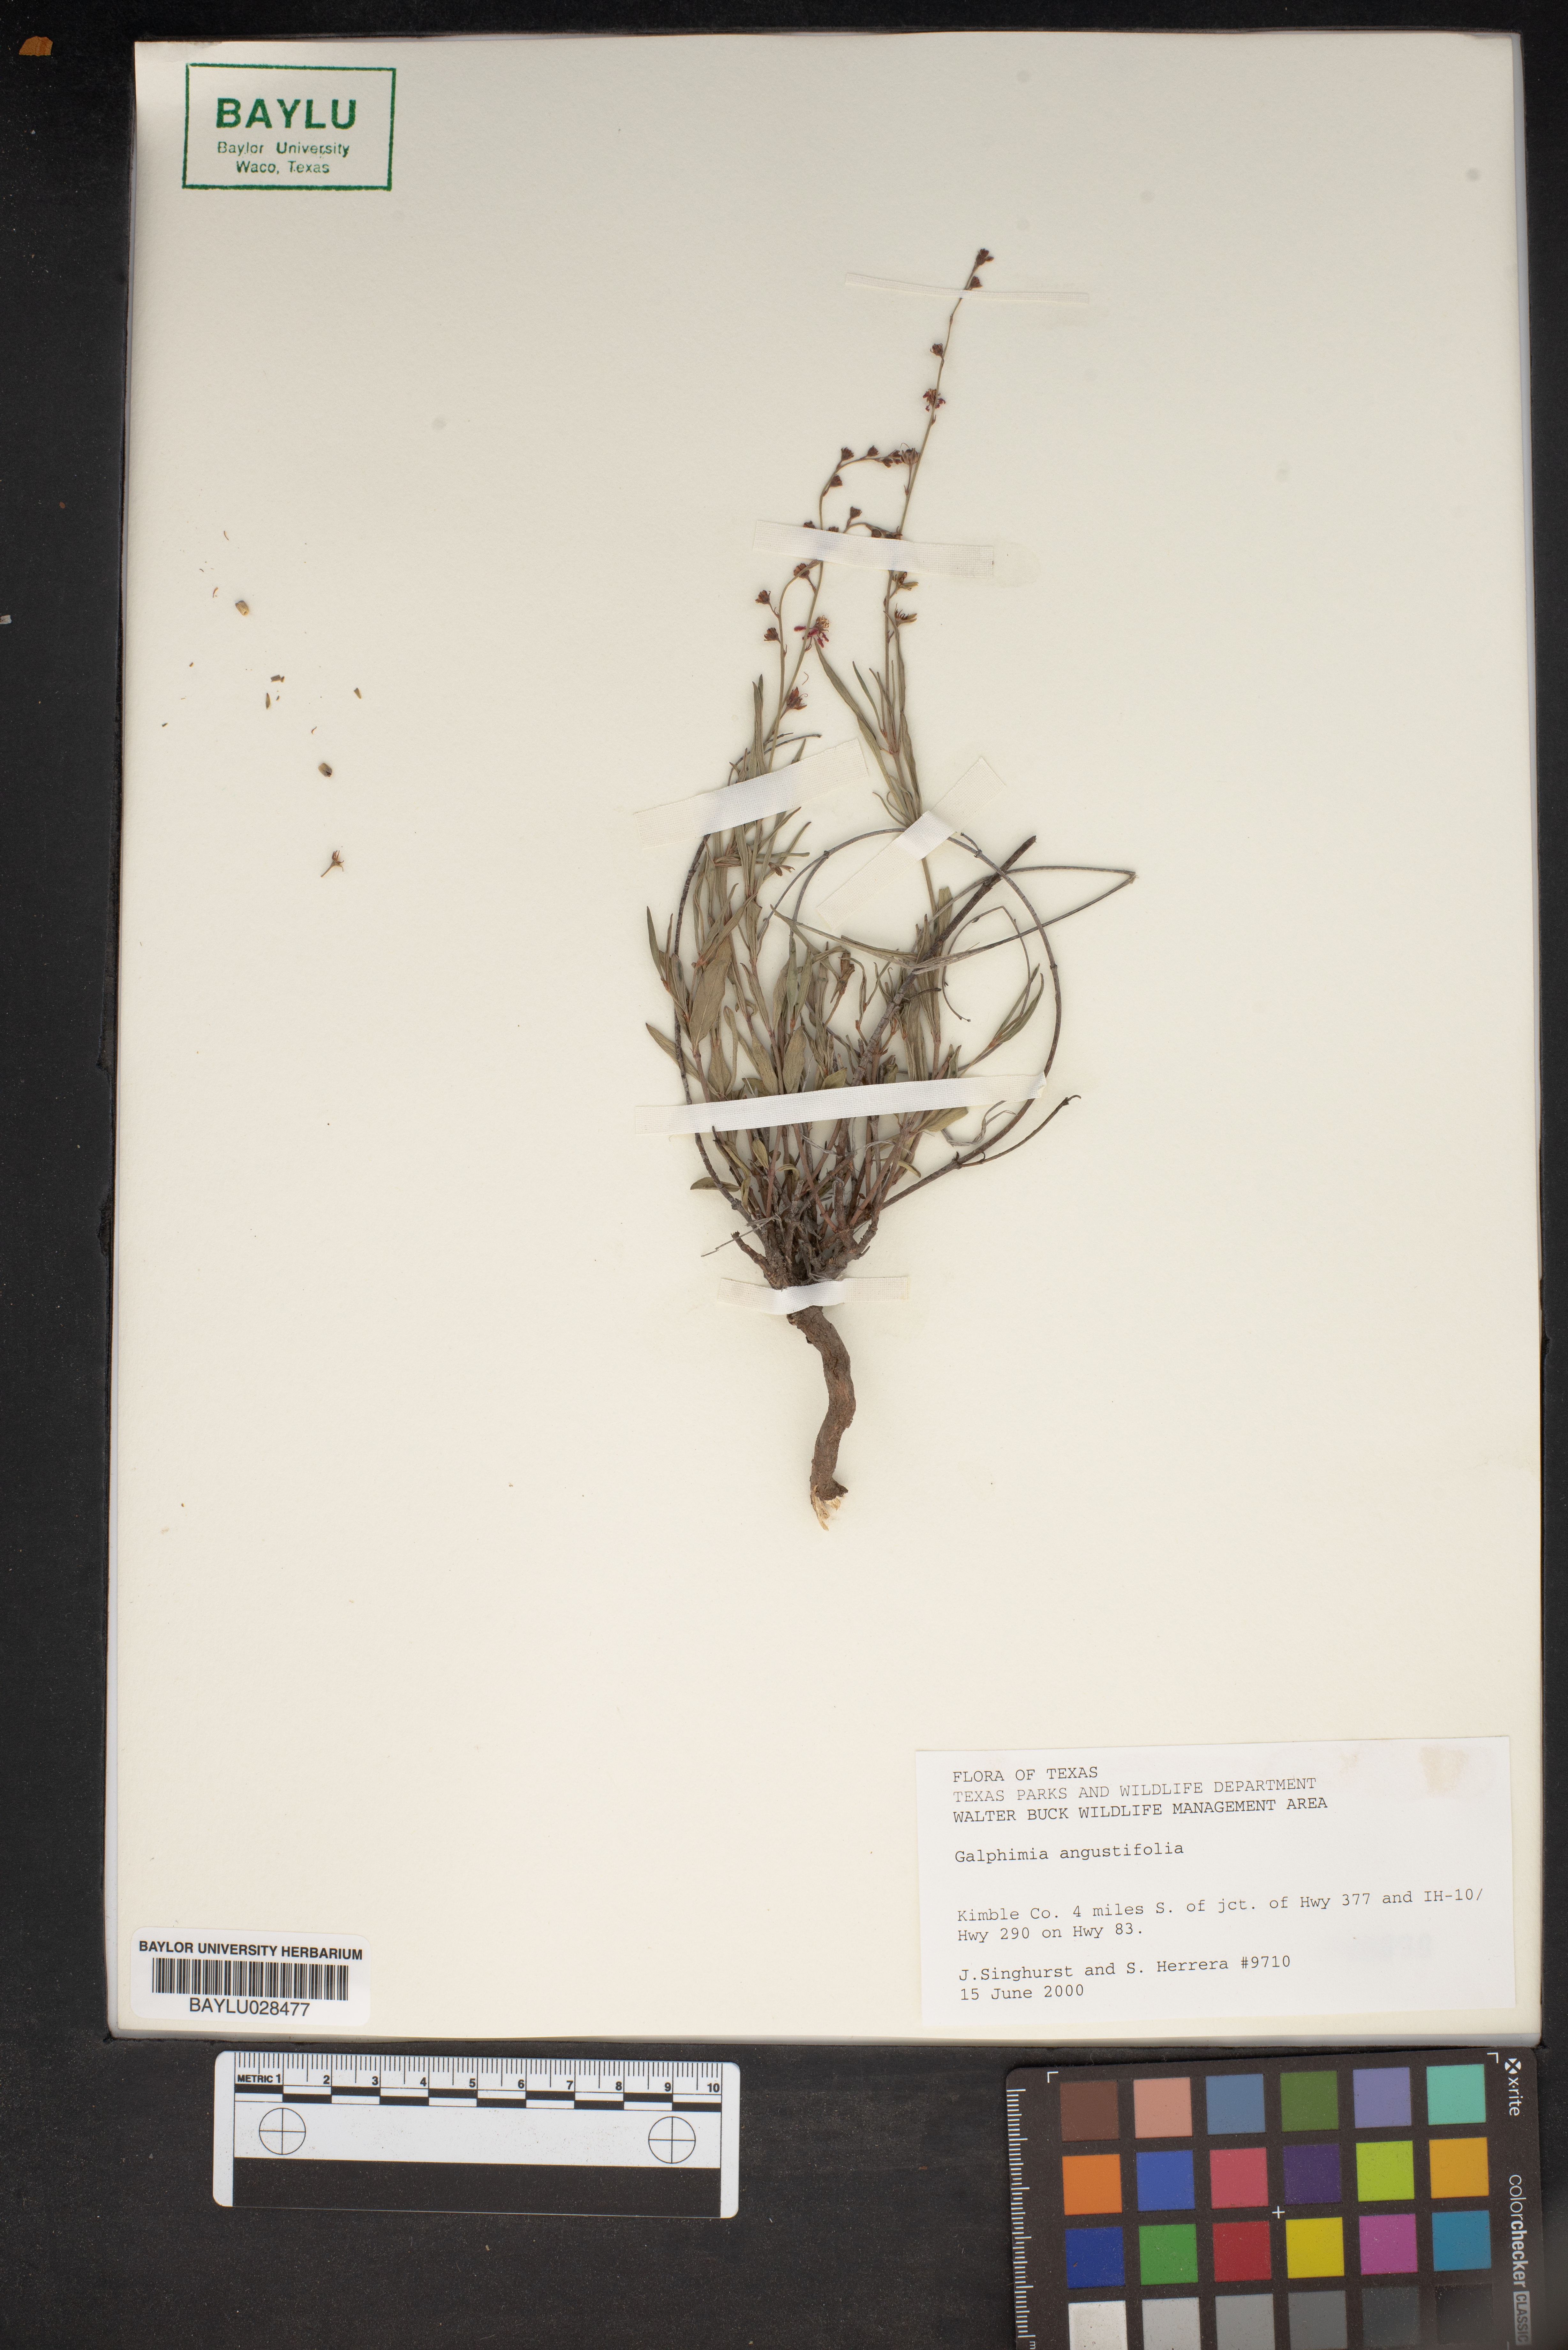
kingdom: Plantae
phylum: Tracheophyta
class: Magnoliopsida
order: Malpighiales
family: Malpighiaceae
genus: Galphimia
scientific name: Galphimia angustifolia
